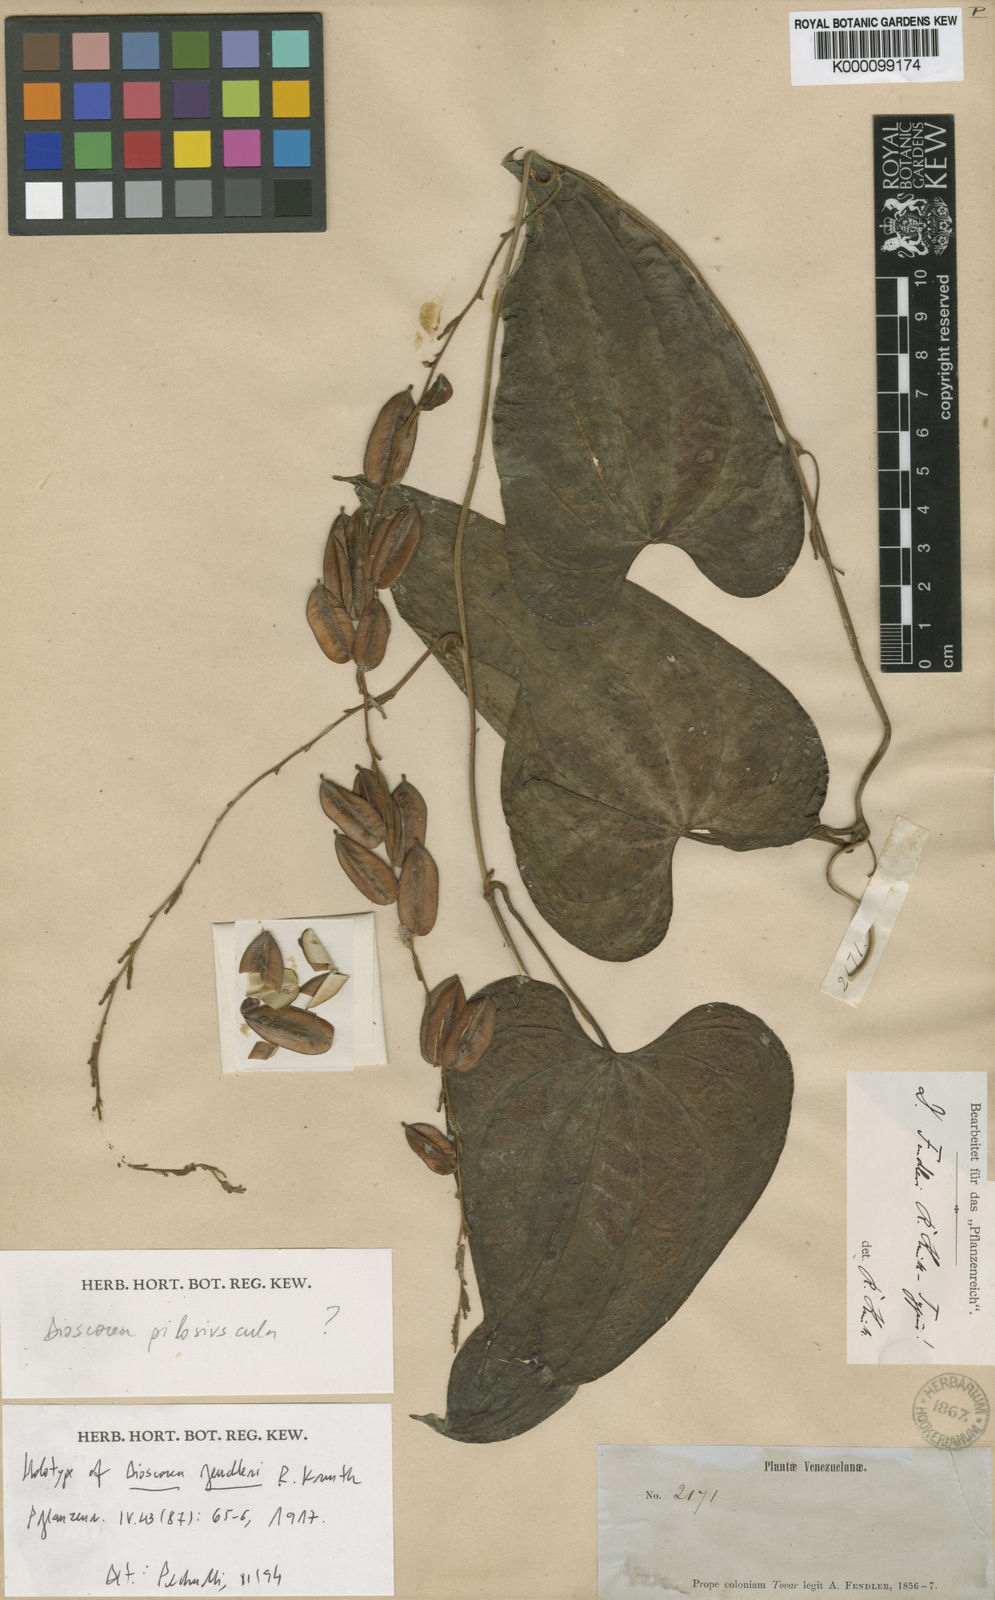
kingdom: Plantae
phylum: Tracheophyta
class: Liliopsida
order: Dioscoreales
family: Dioscoreaceae
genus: Dioscorea
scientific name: Dioscorea fendleri
